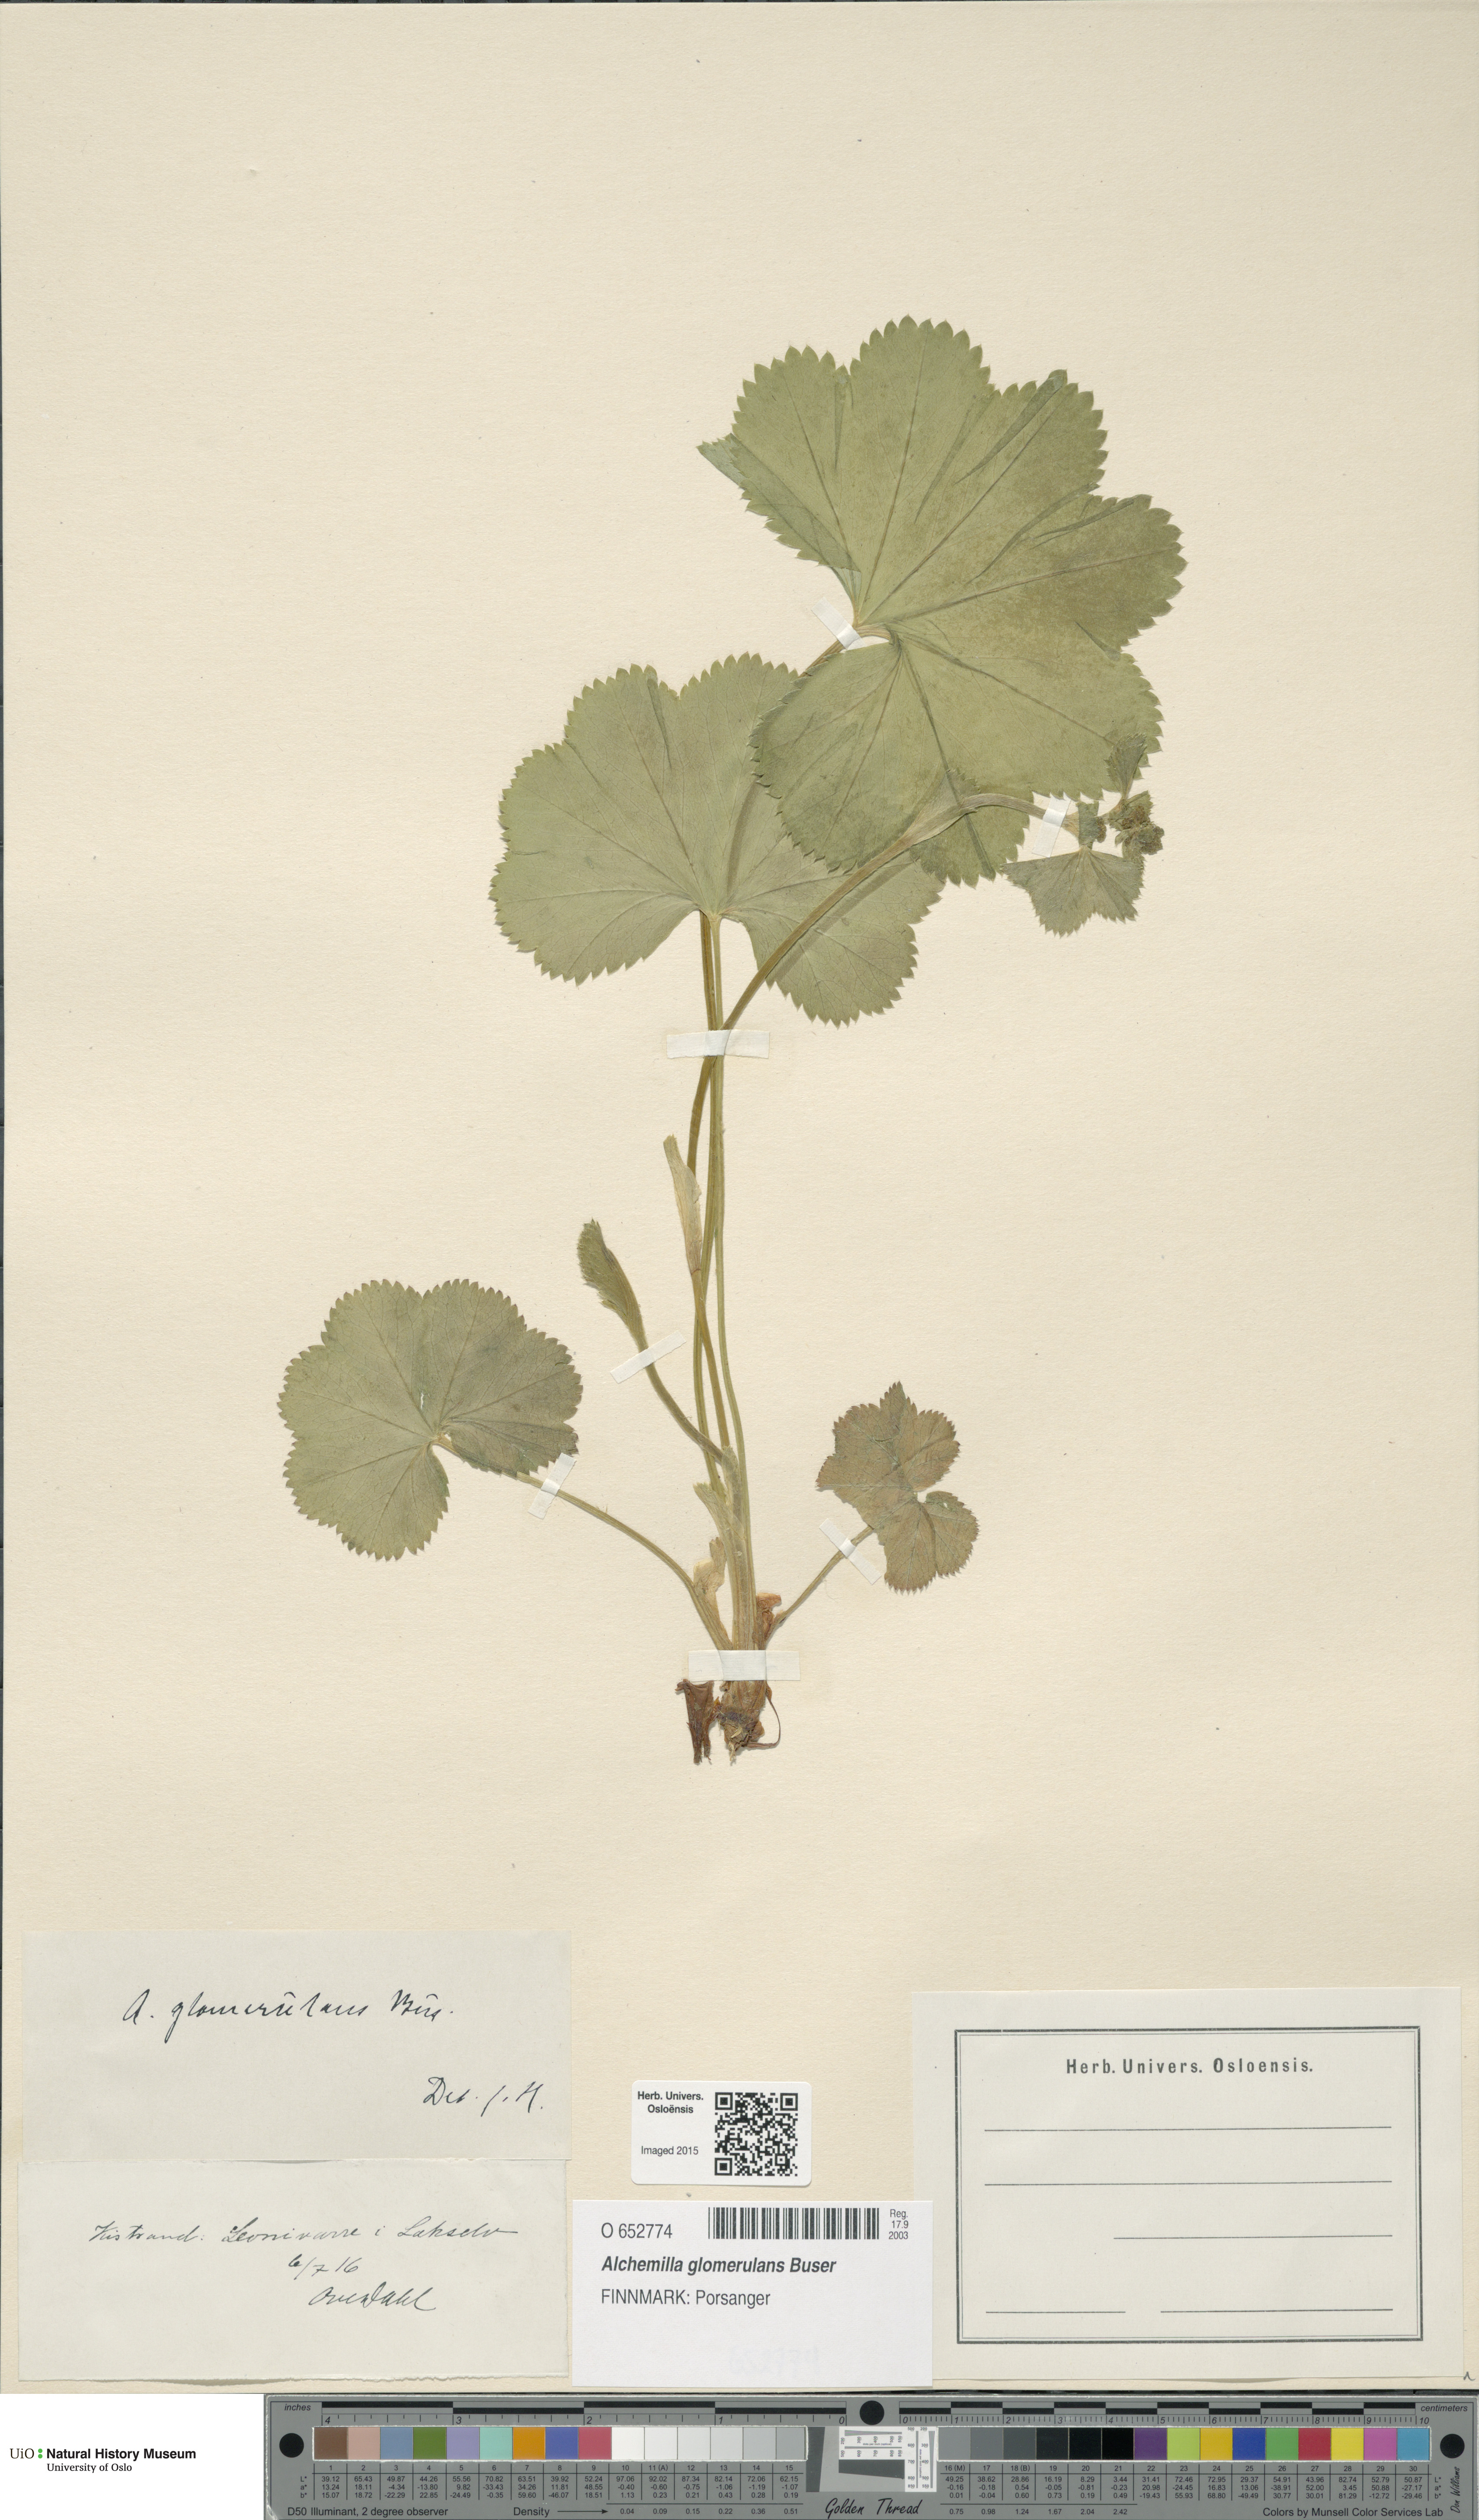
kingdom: Plantae
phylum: Tracheophyta
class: Magnoliopsida
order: Rosales
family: Rosaceae
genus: Alchemilla
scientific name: Alchemilla glomerulans
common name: Clustered lady's mantle
